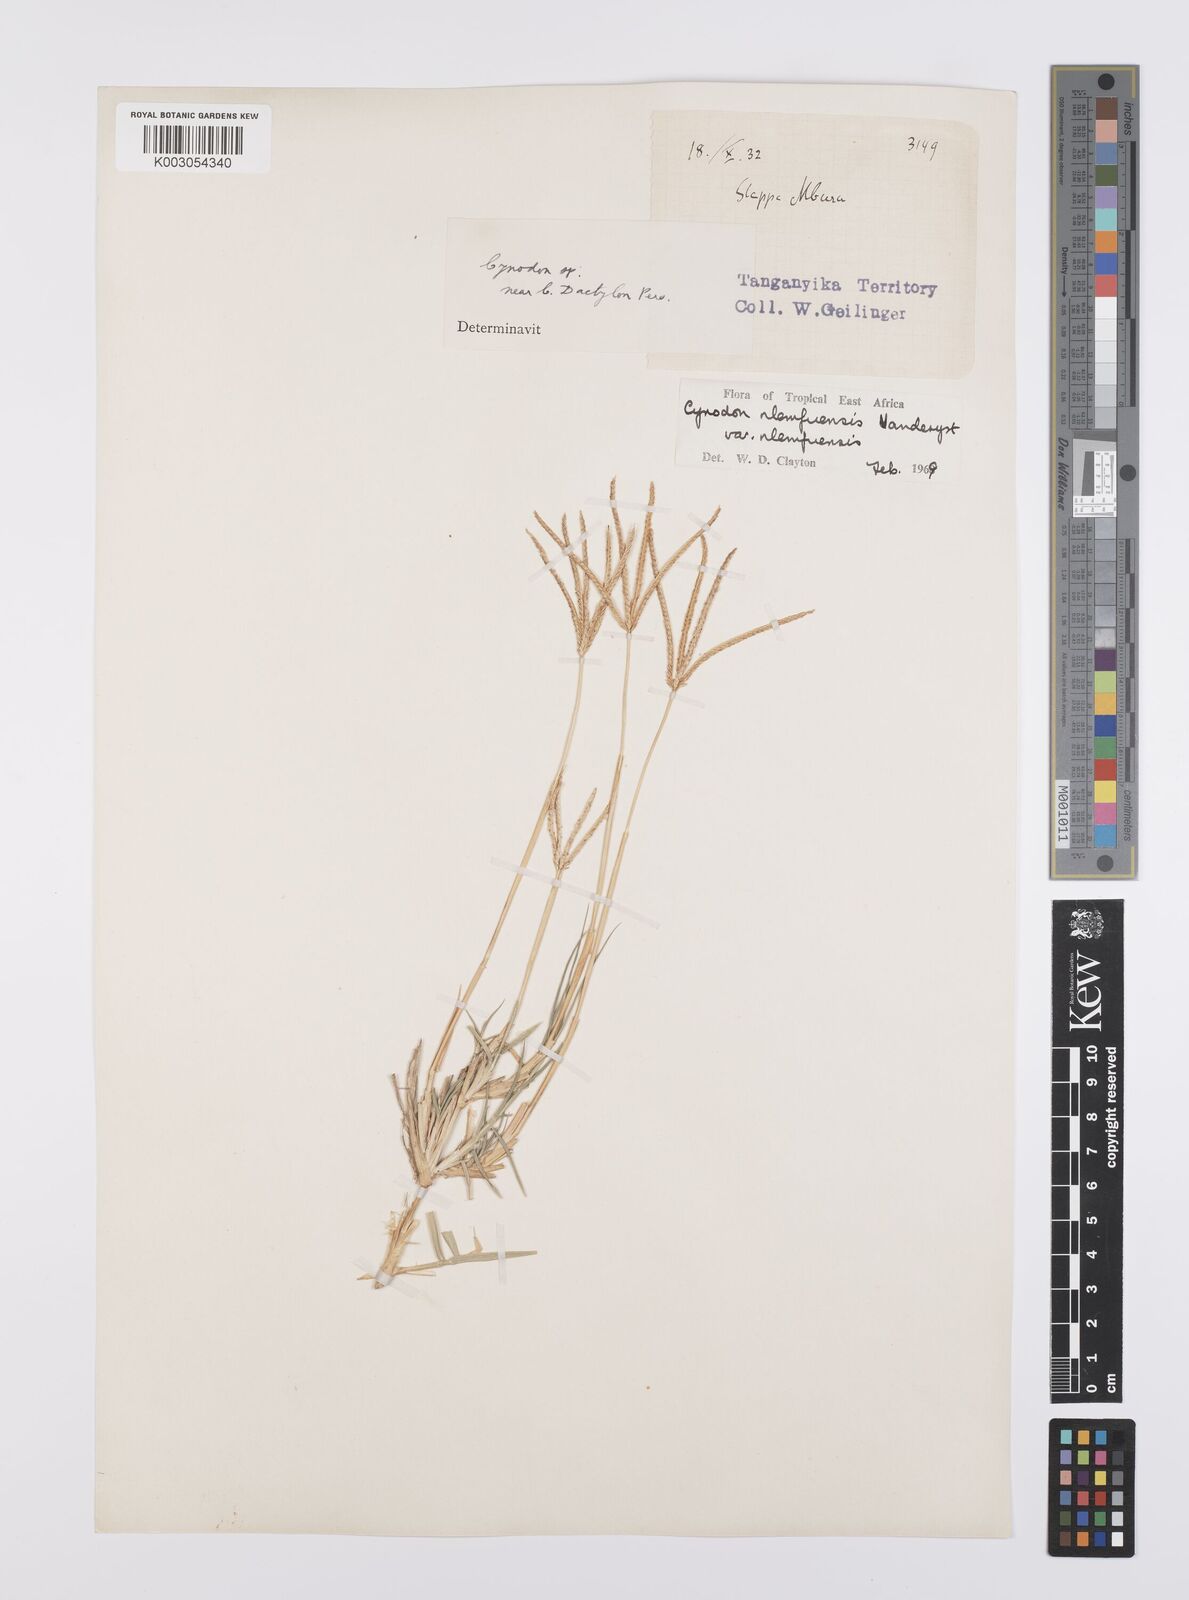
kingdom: Plantae
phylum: Tracheophyta
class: Liliopsida
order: Poales
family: Poaceae
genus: Cynodon
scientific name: Cynodon nlemfuensis
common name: African bermudagrass
